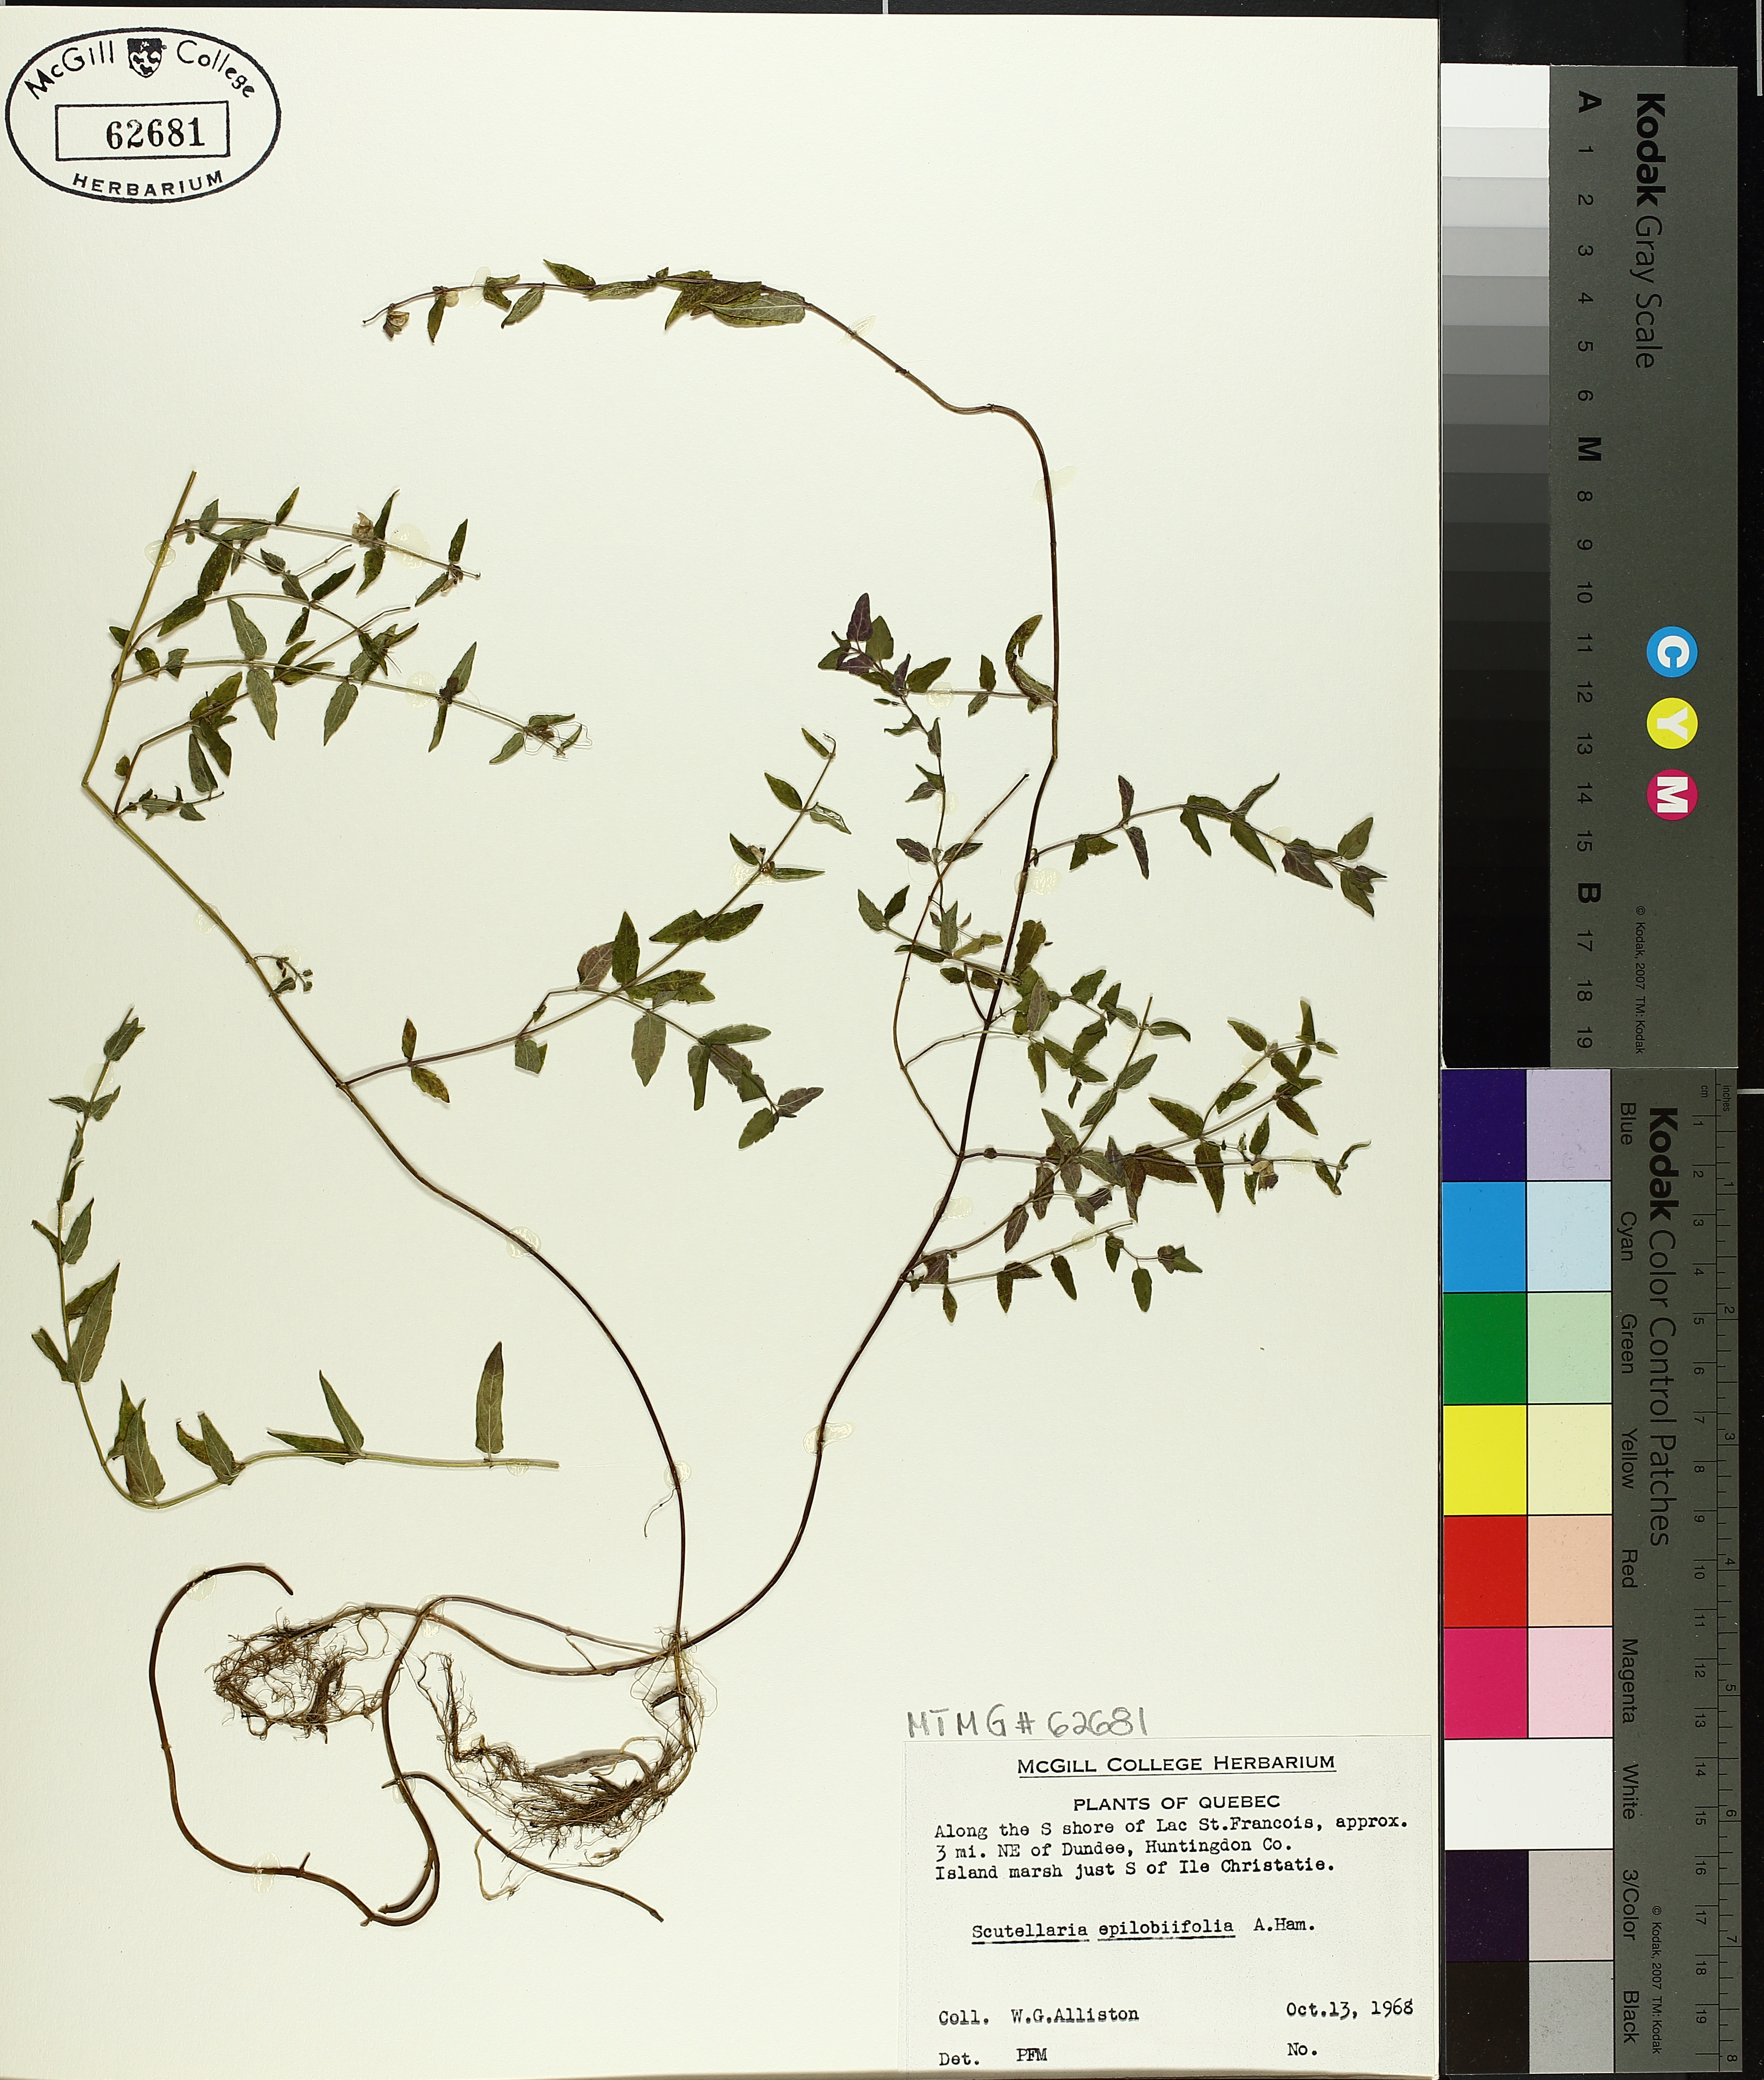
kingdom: Plantae
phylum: Tracheophyta
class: Magnoliopsida
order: Lamiales
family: Lamiaceae
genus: Scutellaria
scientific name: Scutellaria galericulata
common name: Skullcap
